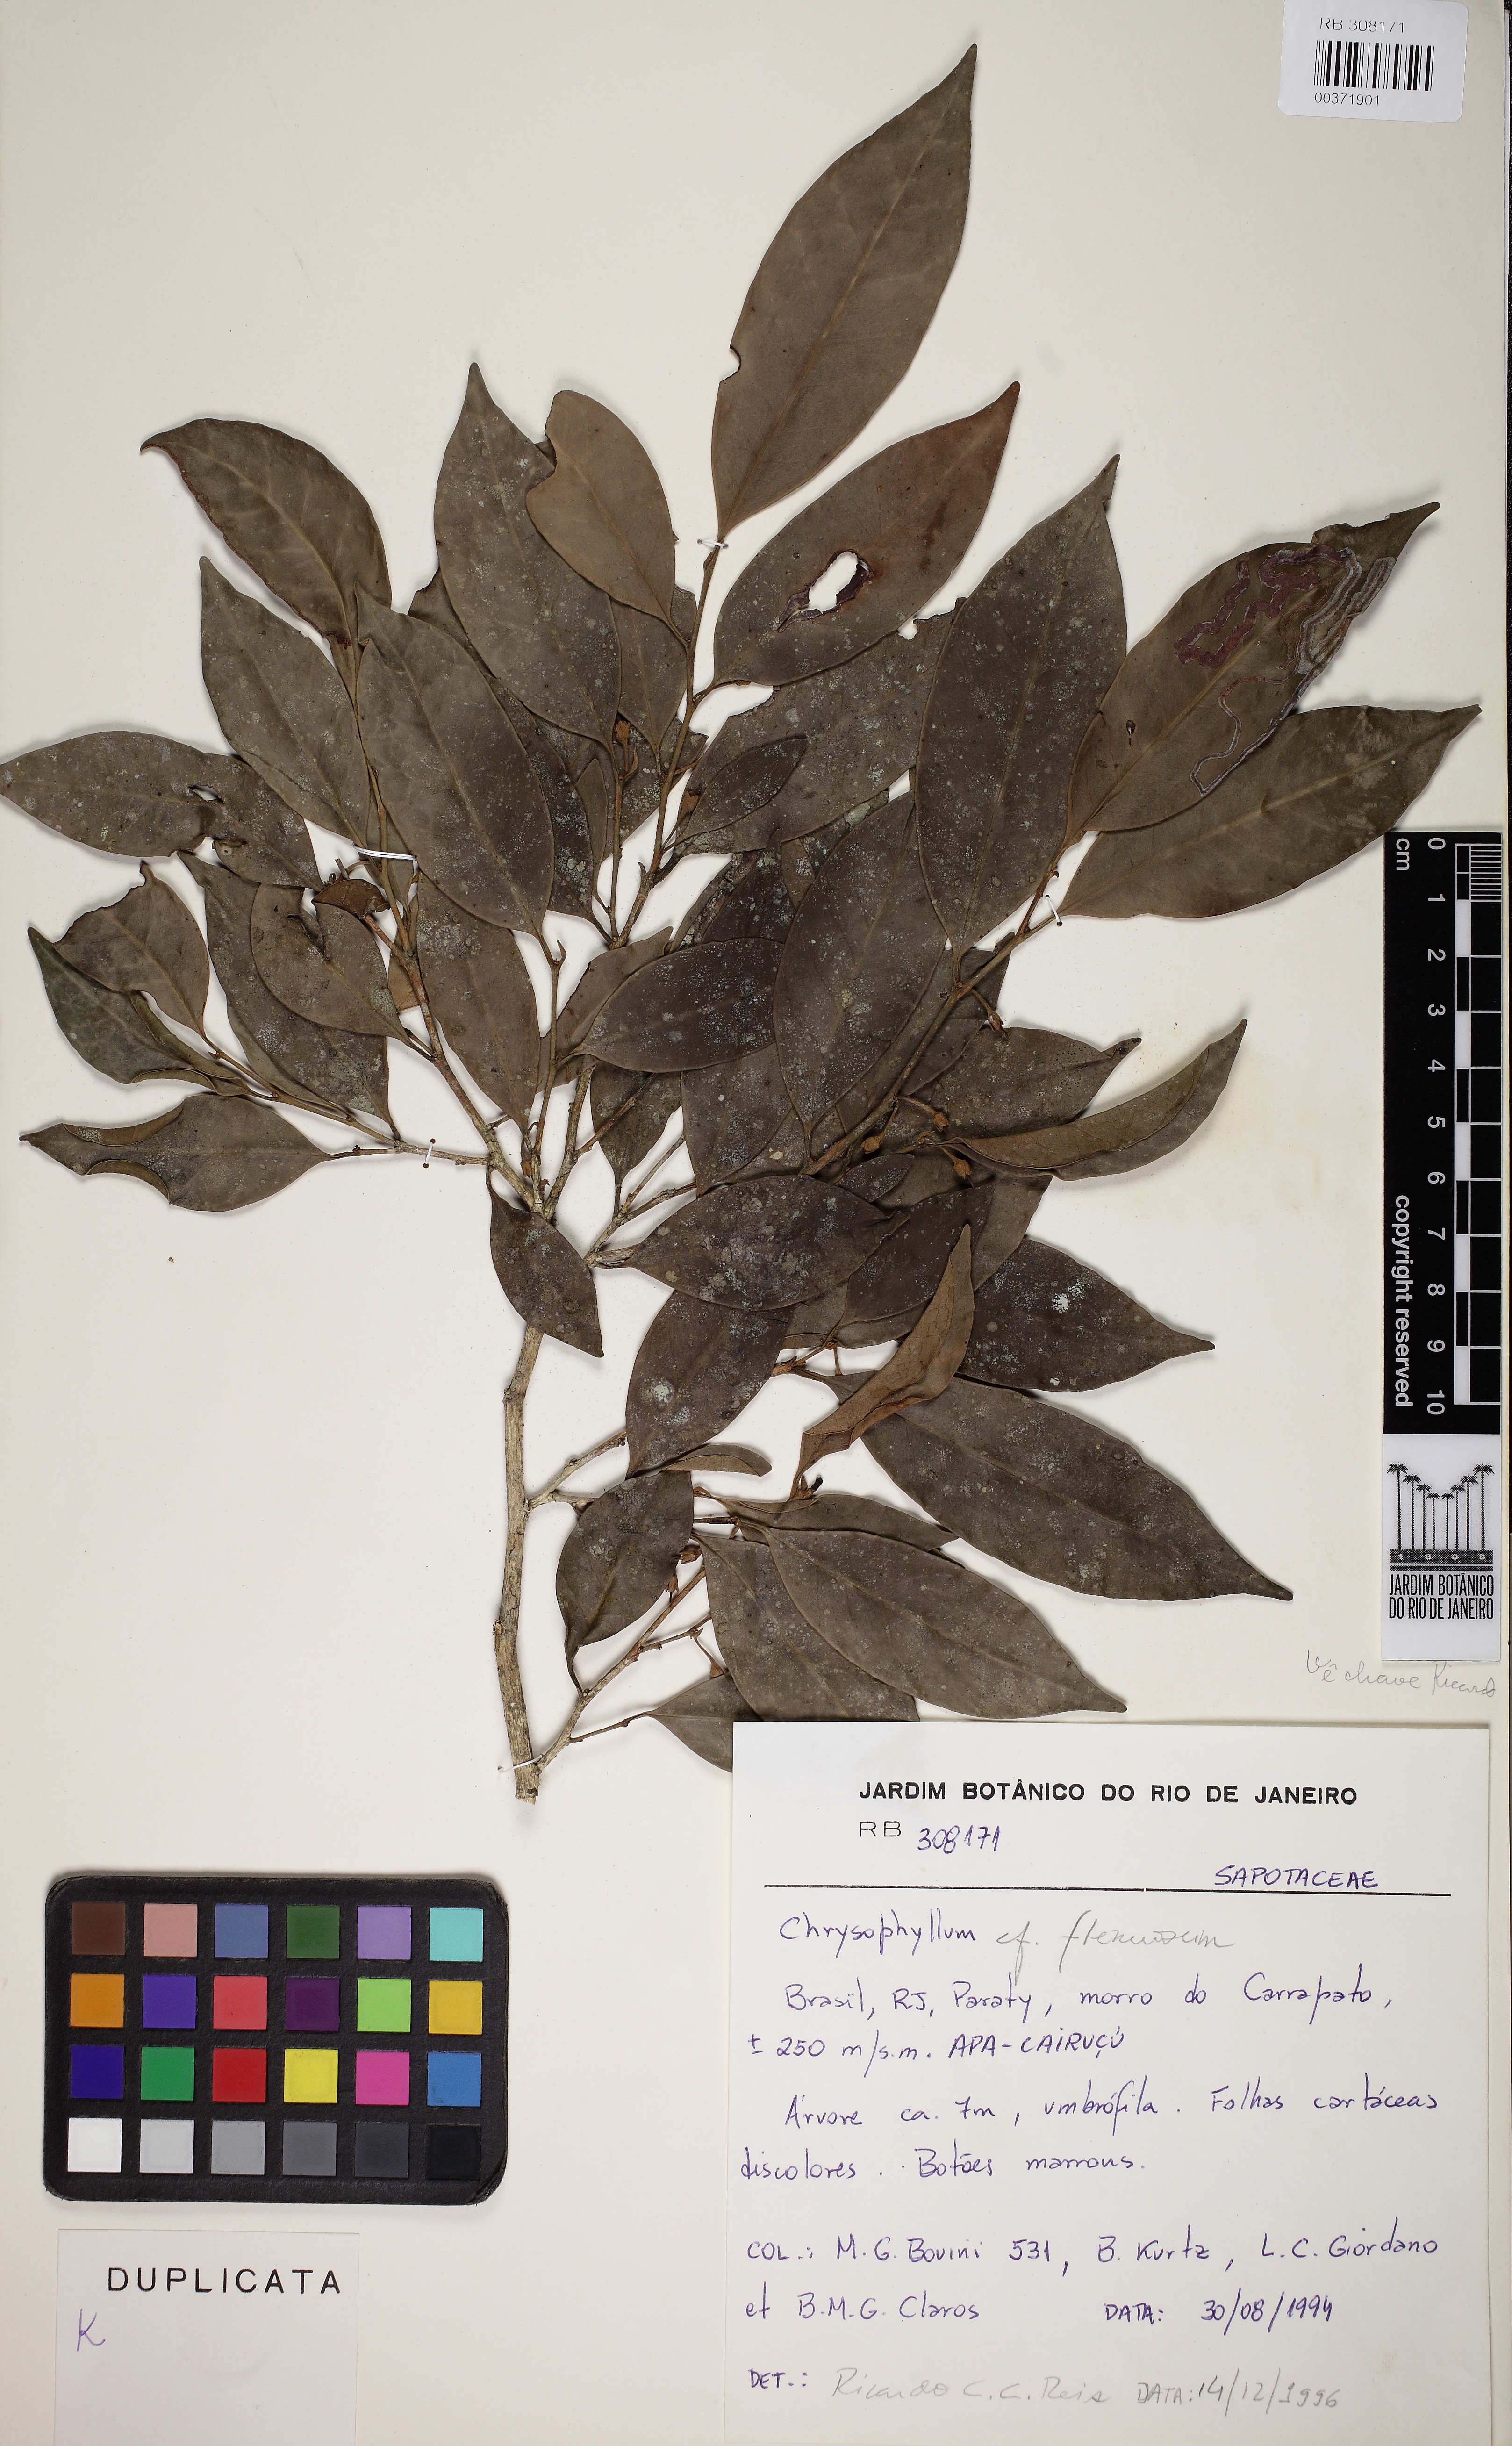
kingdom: Plantae
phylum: Tracheophyta
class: Magnoliopsida
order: Ericales
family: Sapotaceae
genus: Chrysophyllum
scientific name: Chrysophyllum flexuosum
